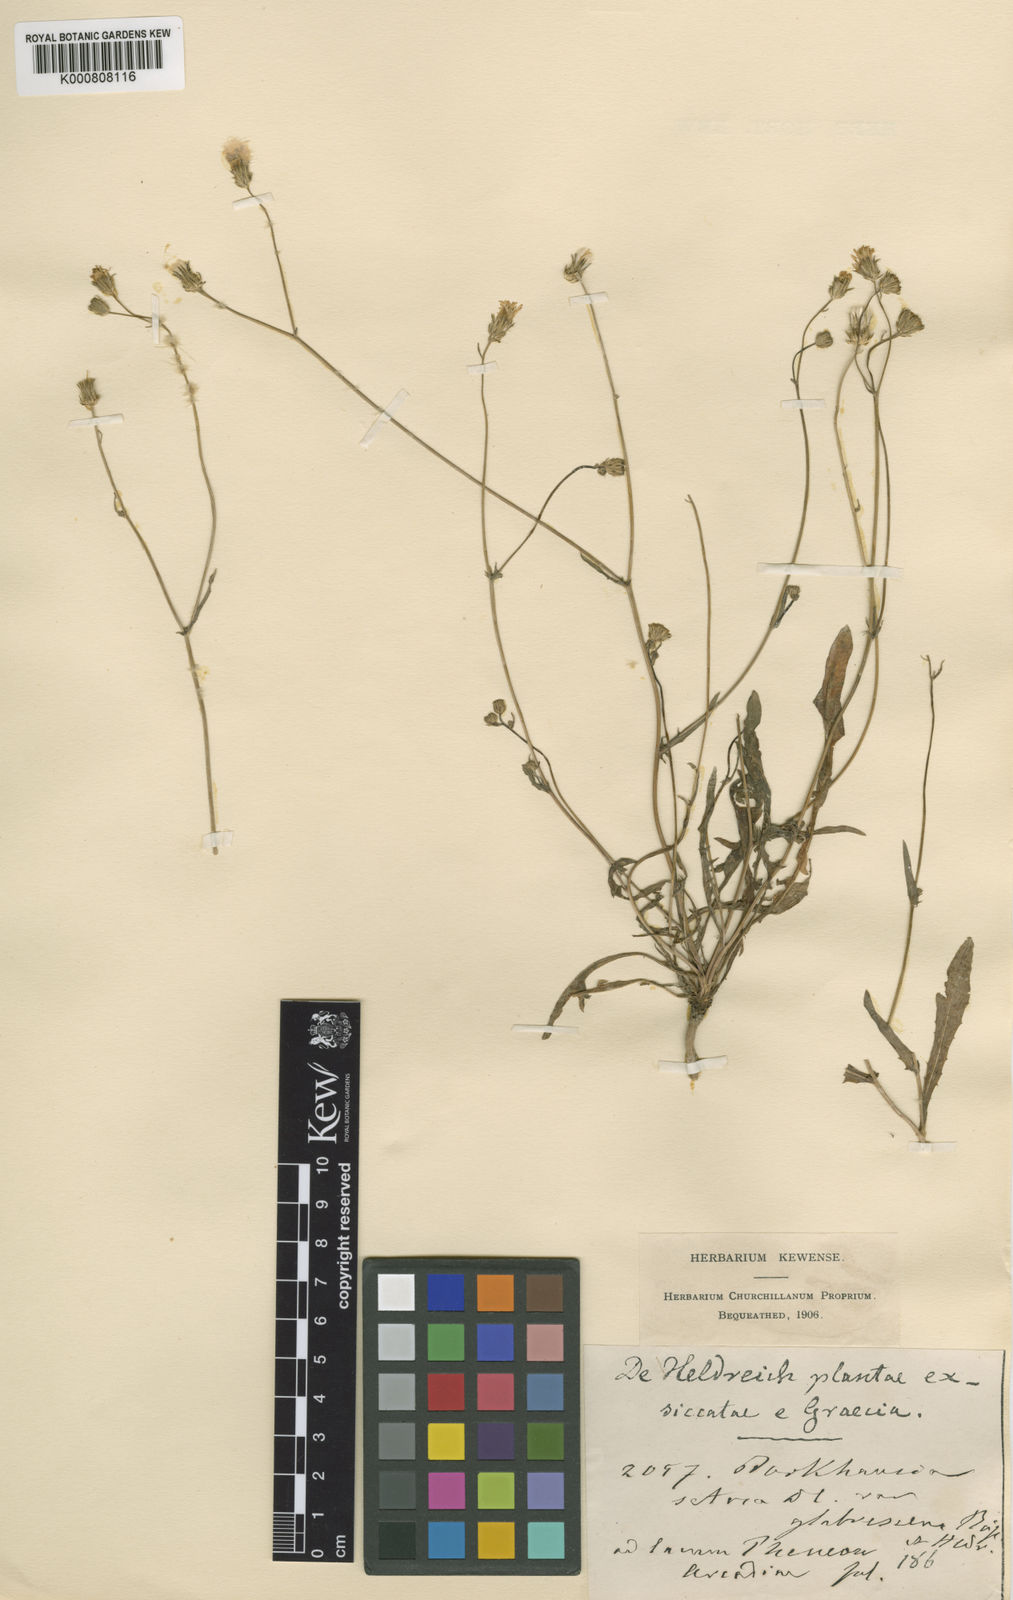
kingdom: Plantae
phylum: Tracheophyta
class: Magnoliopsida
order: Asterales
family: Asteraceae
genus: Crepis
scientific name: Crepis setosa
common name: Bristly hawk's-beard
